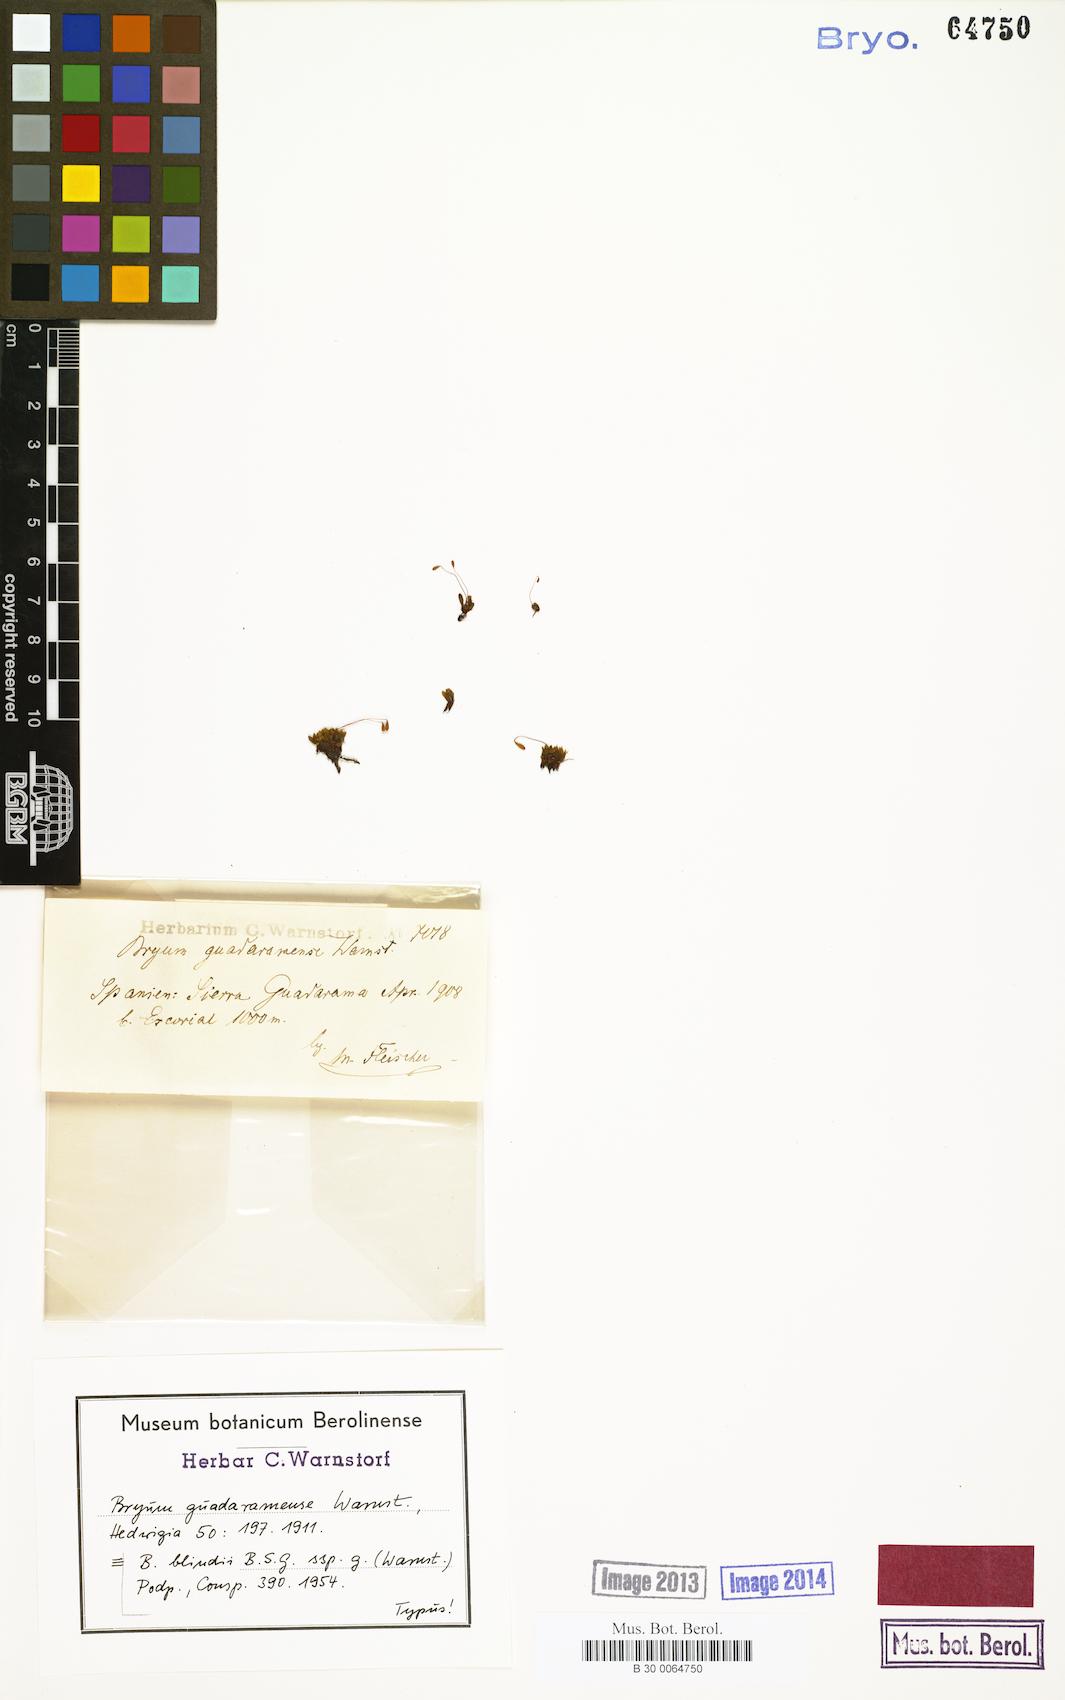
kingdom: Plantae
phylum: Bryophyta
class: Bryopsida
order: Bryales
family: Bryaceae
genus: Bryum
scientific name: Bryum blindii
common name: Blind's bryum
